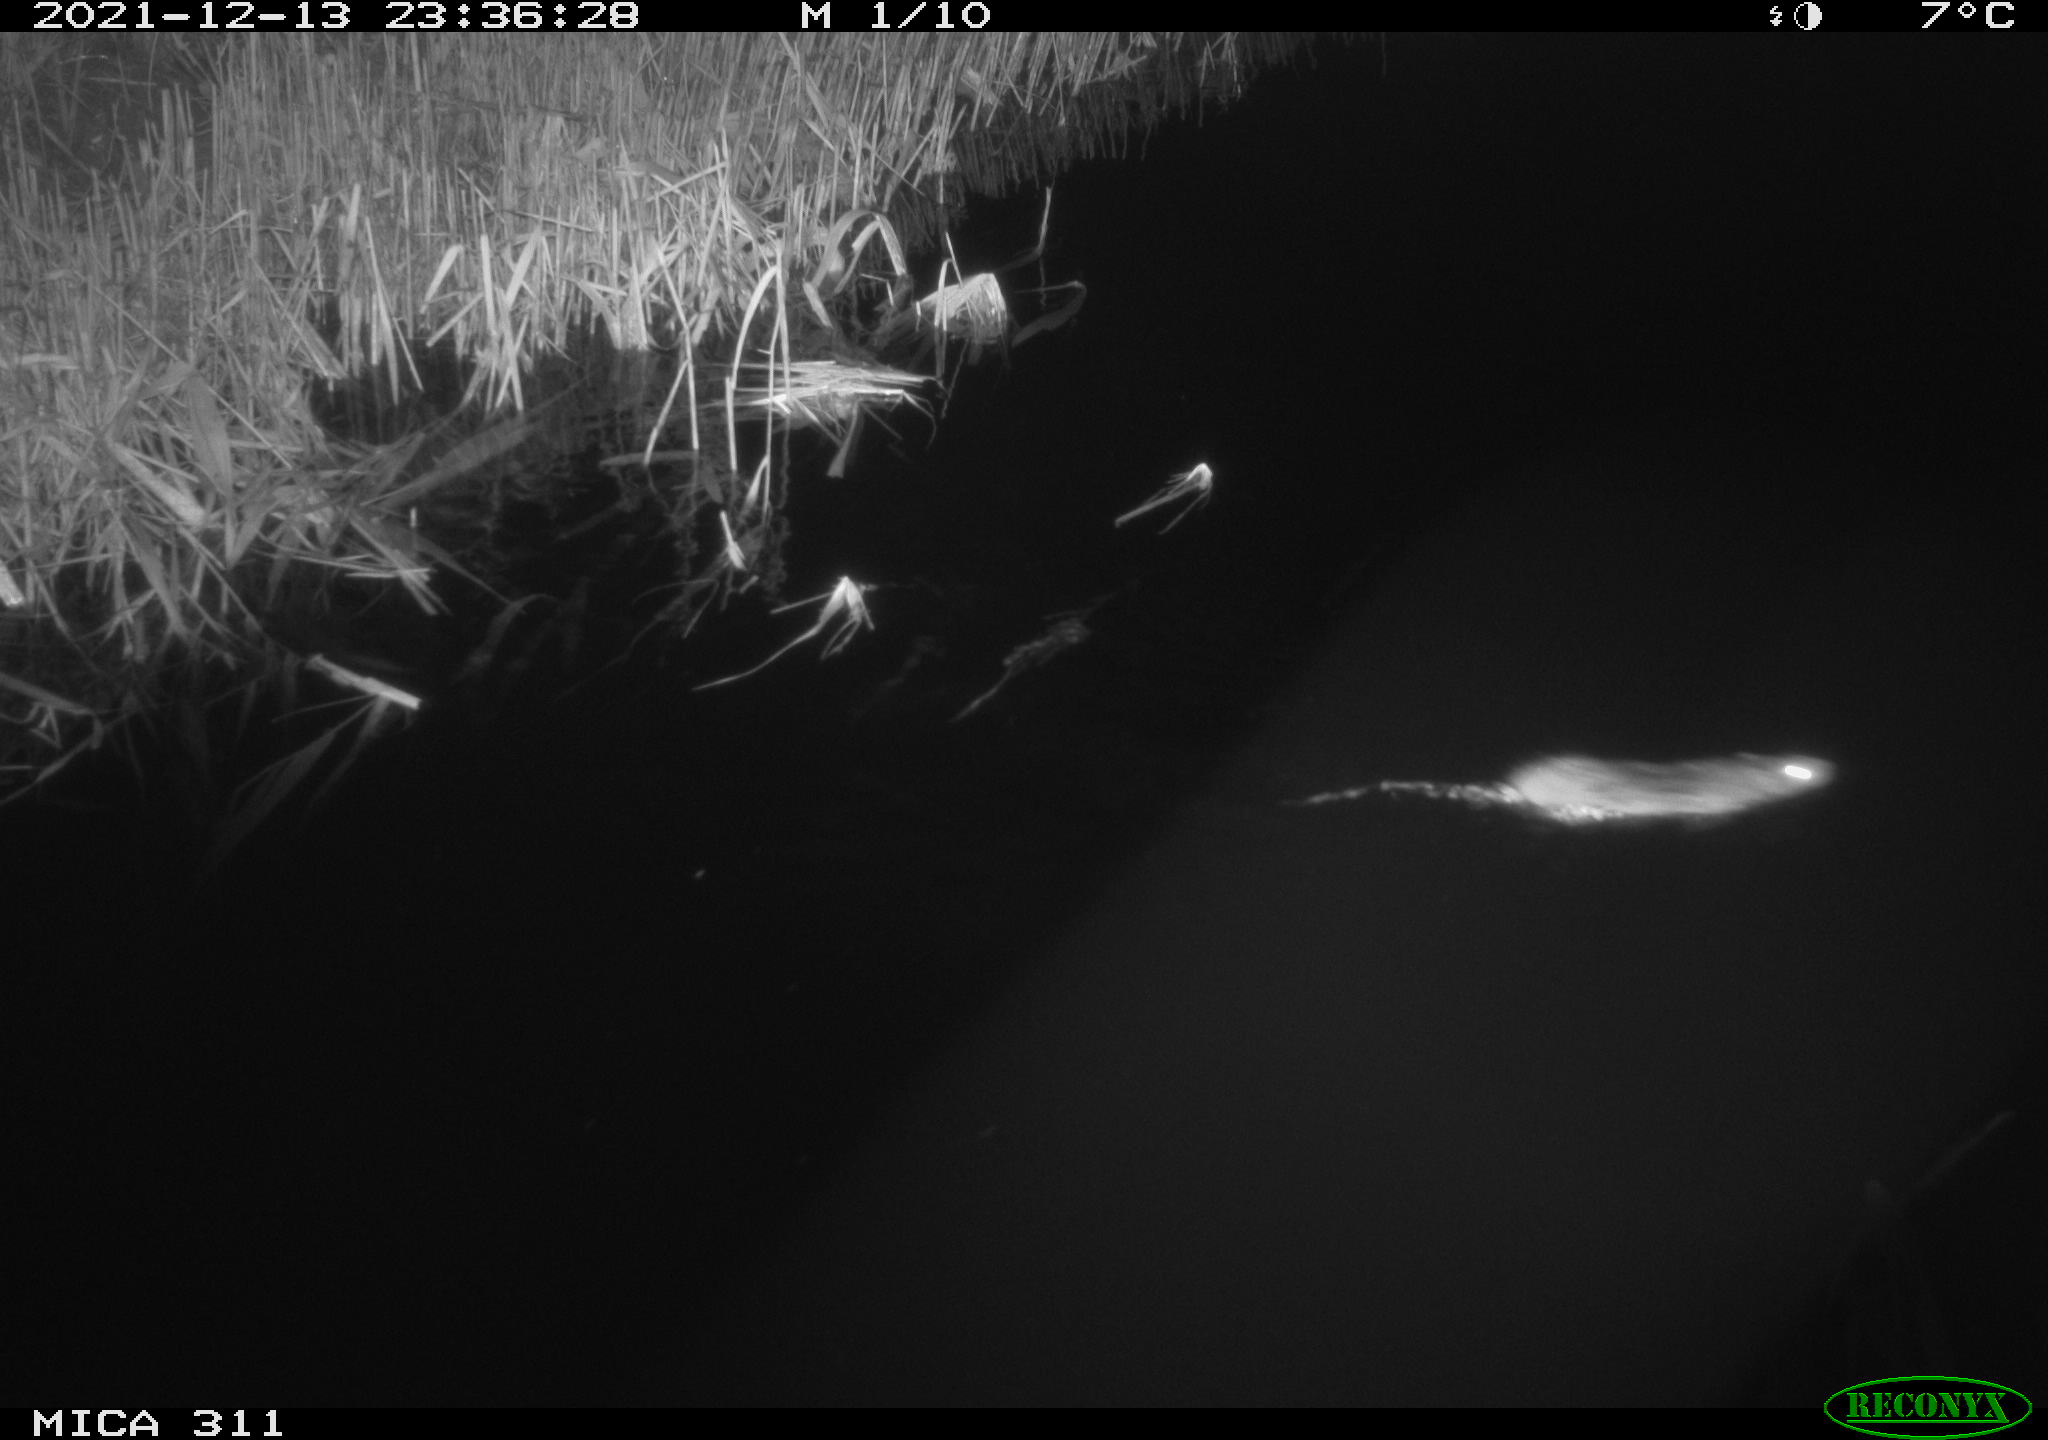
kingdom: Animalia
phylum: Chordata
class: Mammalia
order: Rodentia
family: Muridae
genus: Rattus
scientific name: Rattus norvegicus
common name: Brown rat
